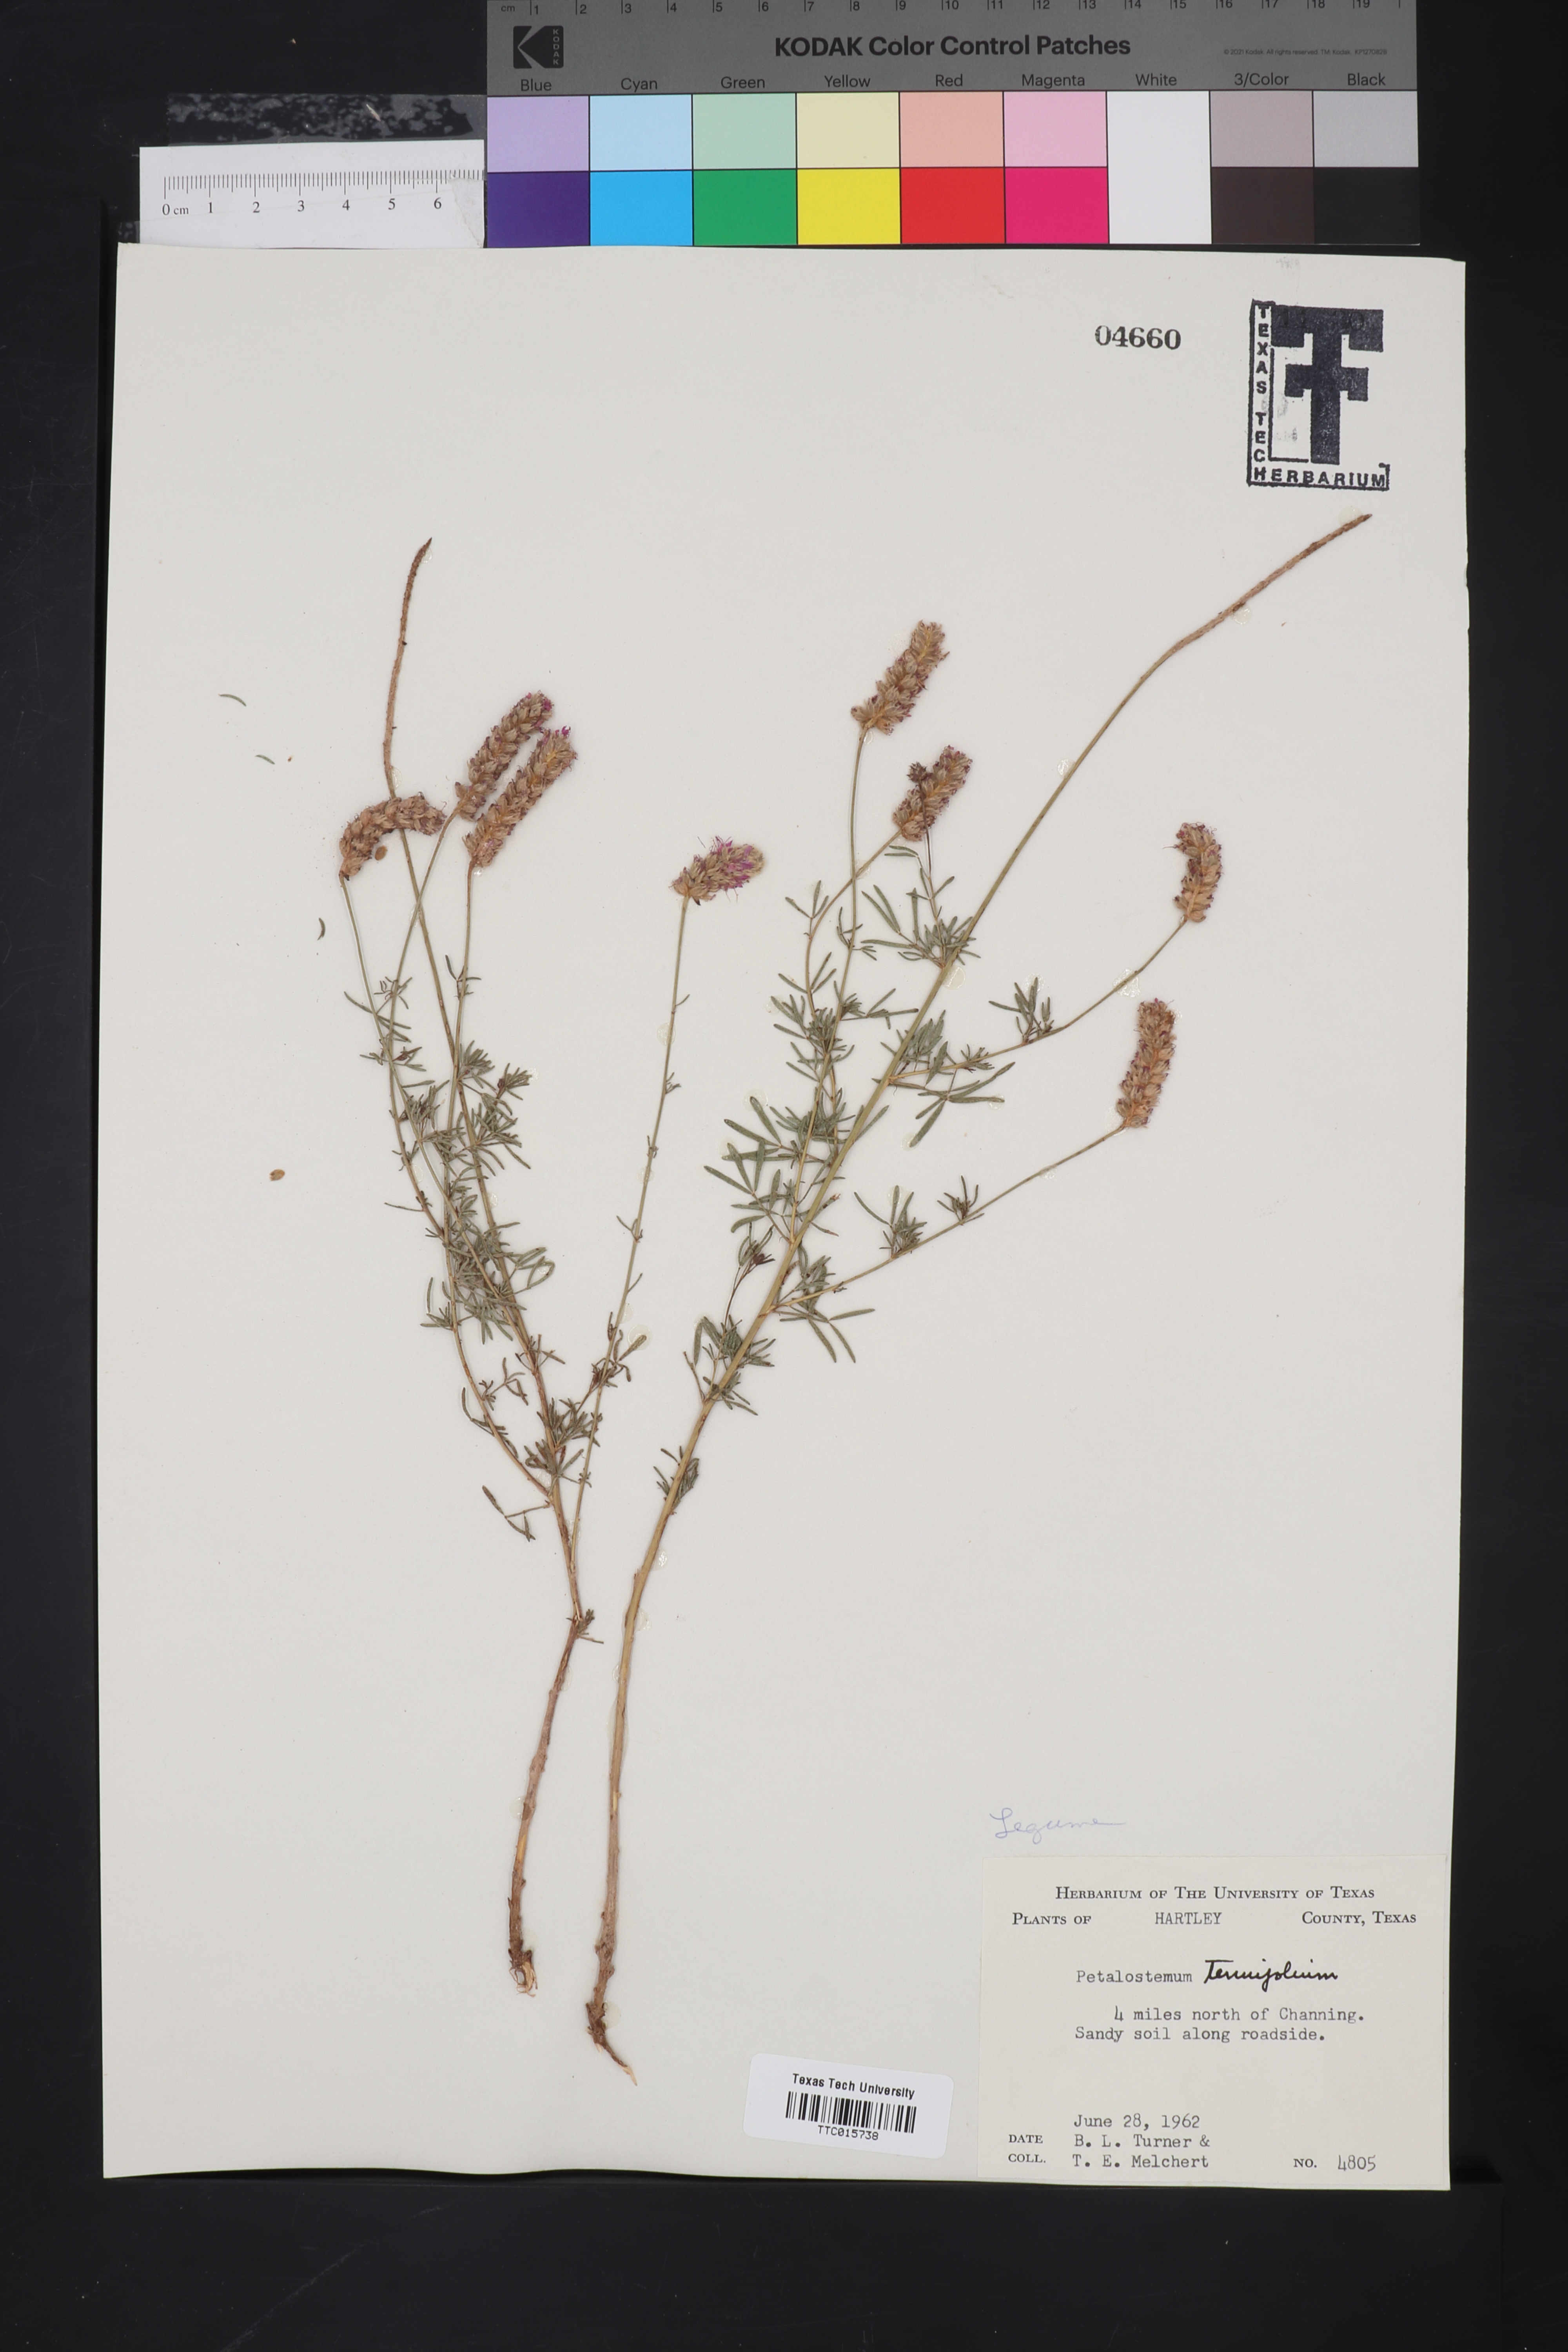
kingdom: Plantae
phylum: Tracheophyta
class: Magnoliopsida
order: Fabales
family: Fabaceae
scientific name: Fabaceae
